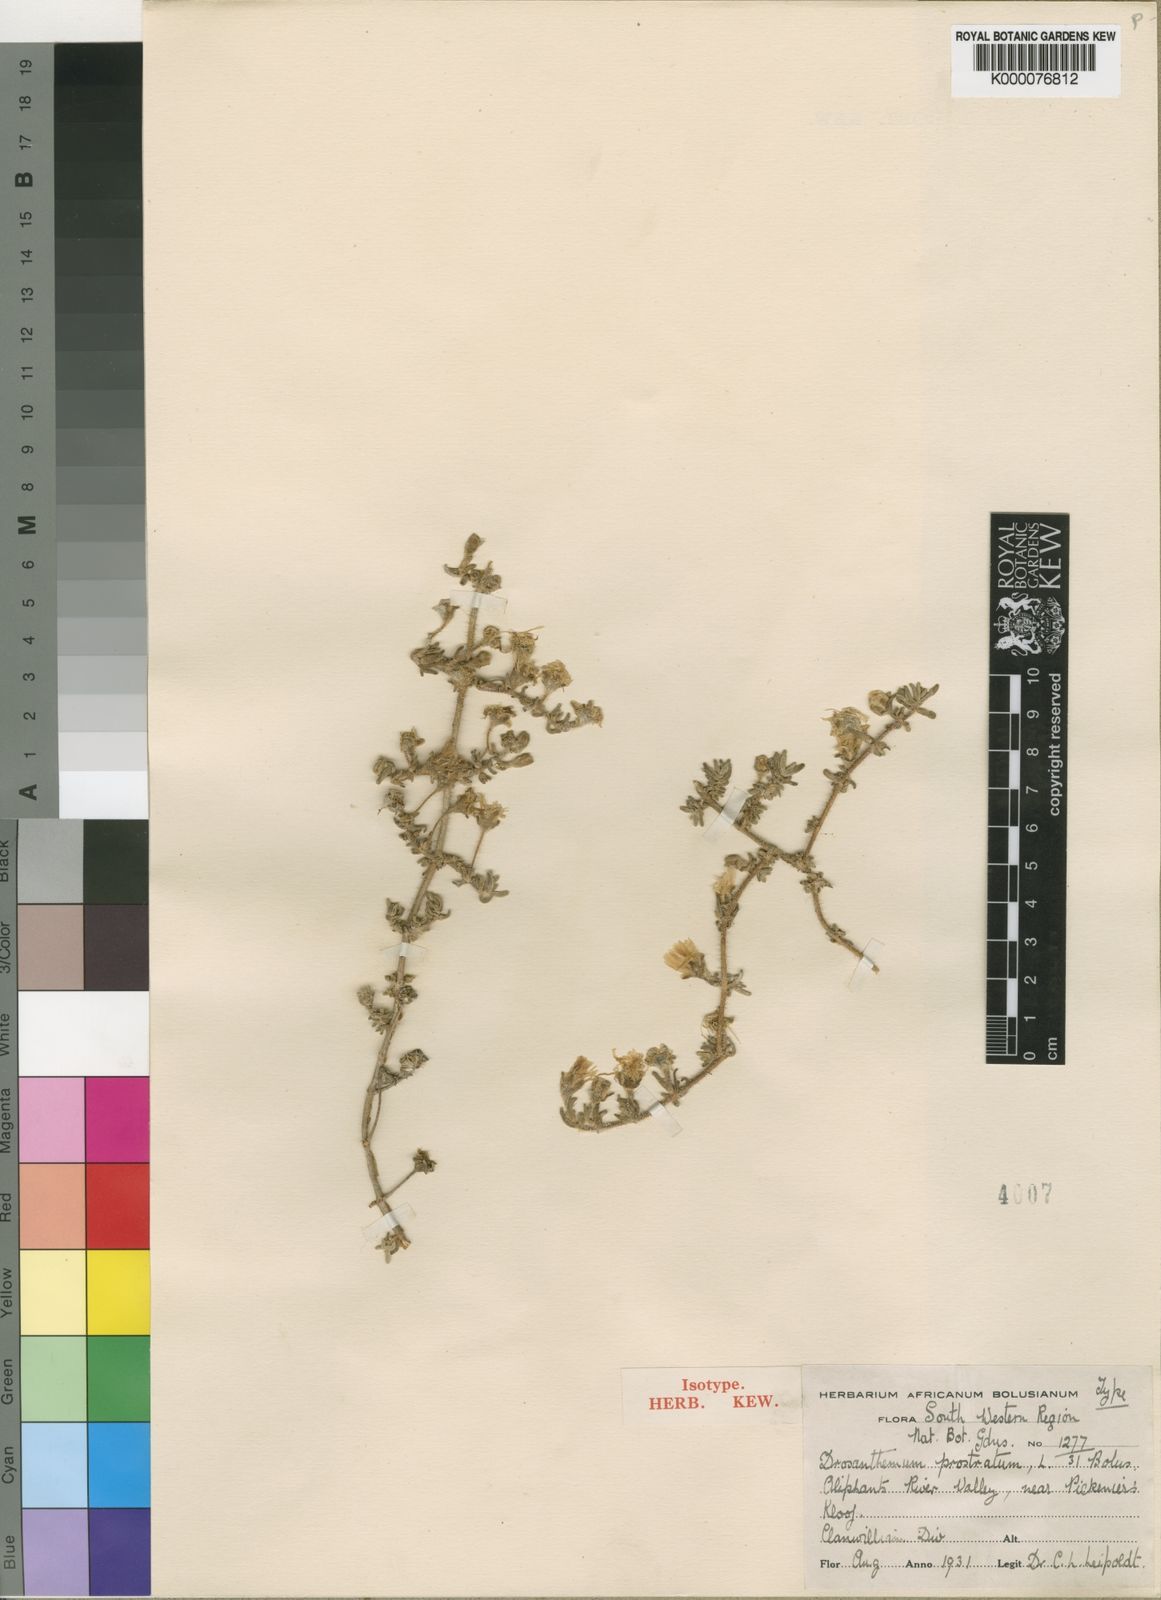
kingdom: Plantae
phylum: Tracheophyta
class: Magnoliopsida
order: Caryophyllales
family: Aizoaceae
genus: Drosanthemum
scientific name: Drosanthemum prostratum
